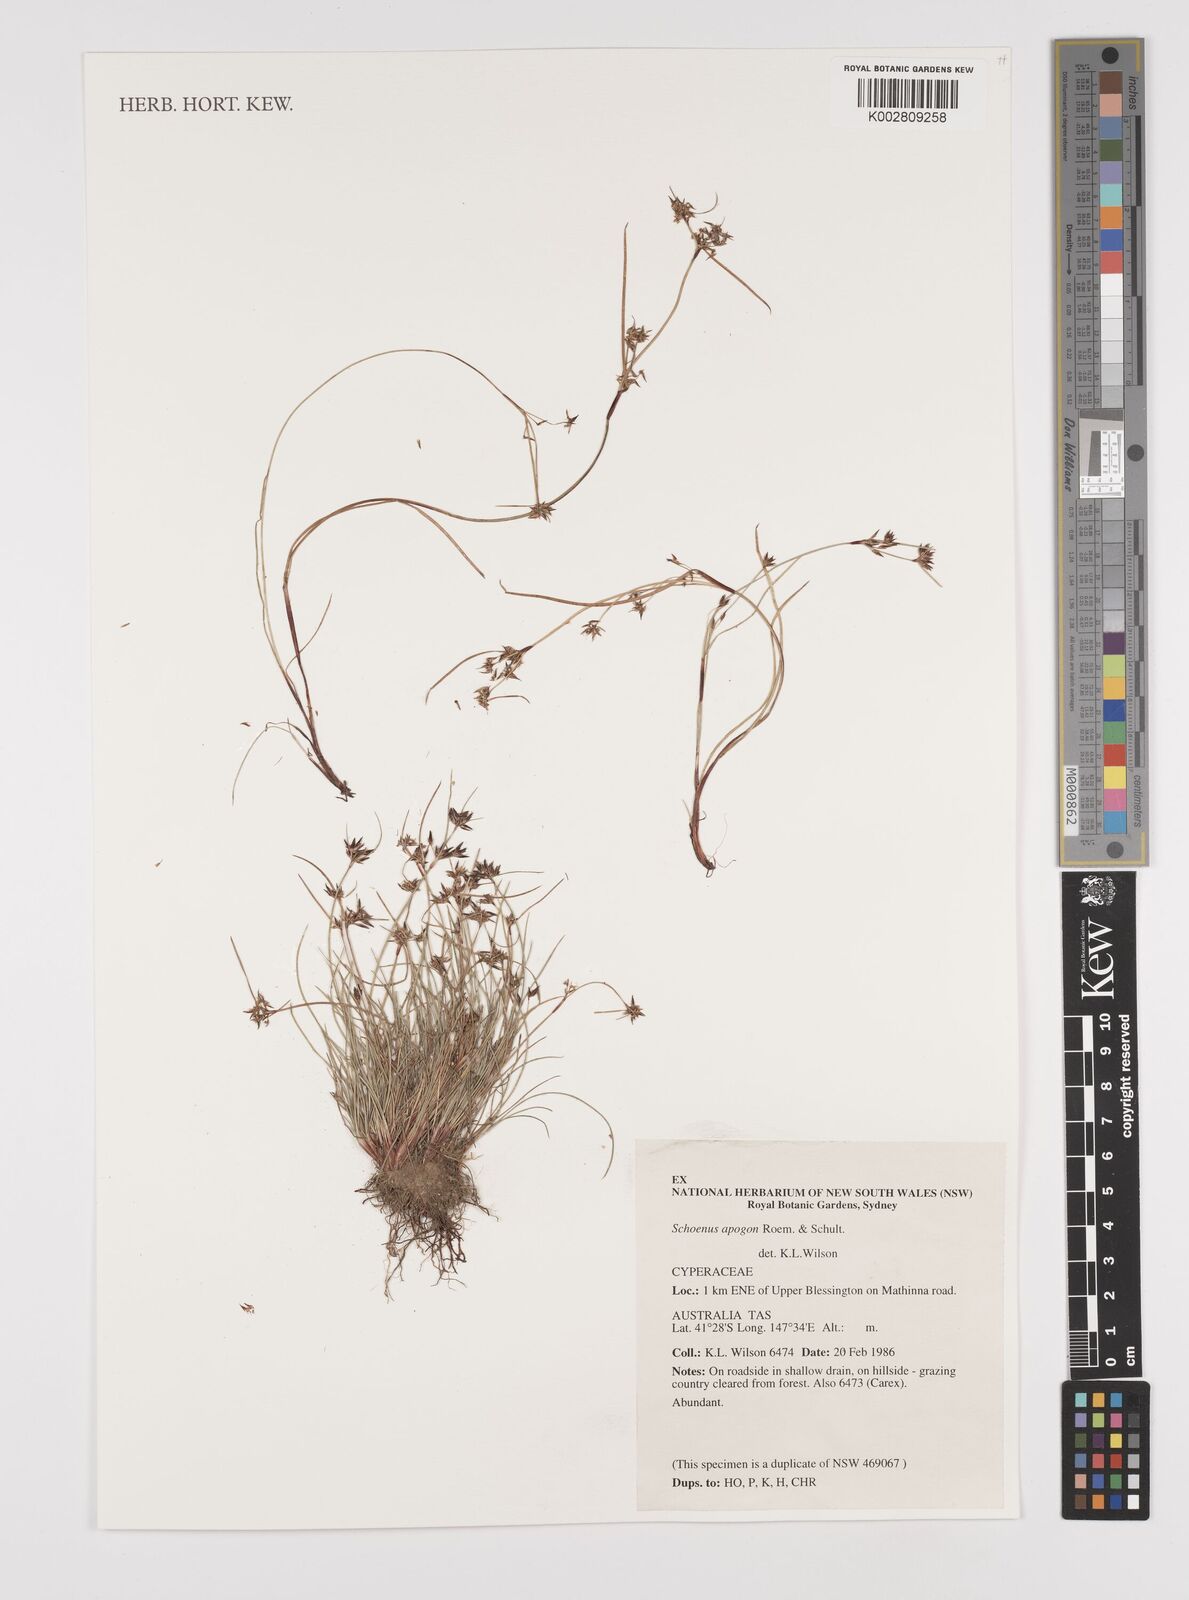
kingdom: Plantae
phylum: Tracheophyta
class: Liliopsida
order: Poales
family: Cyperaceae
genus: Schoenus
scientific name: Schoenus apogon
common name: Smooth bogrush
